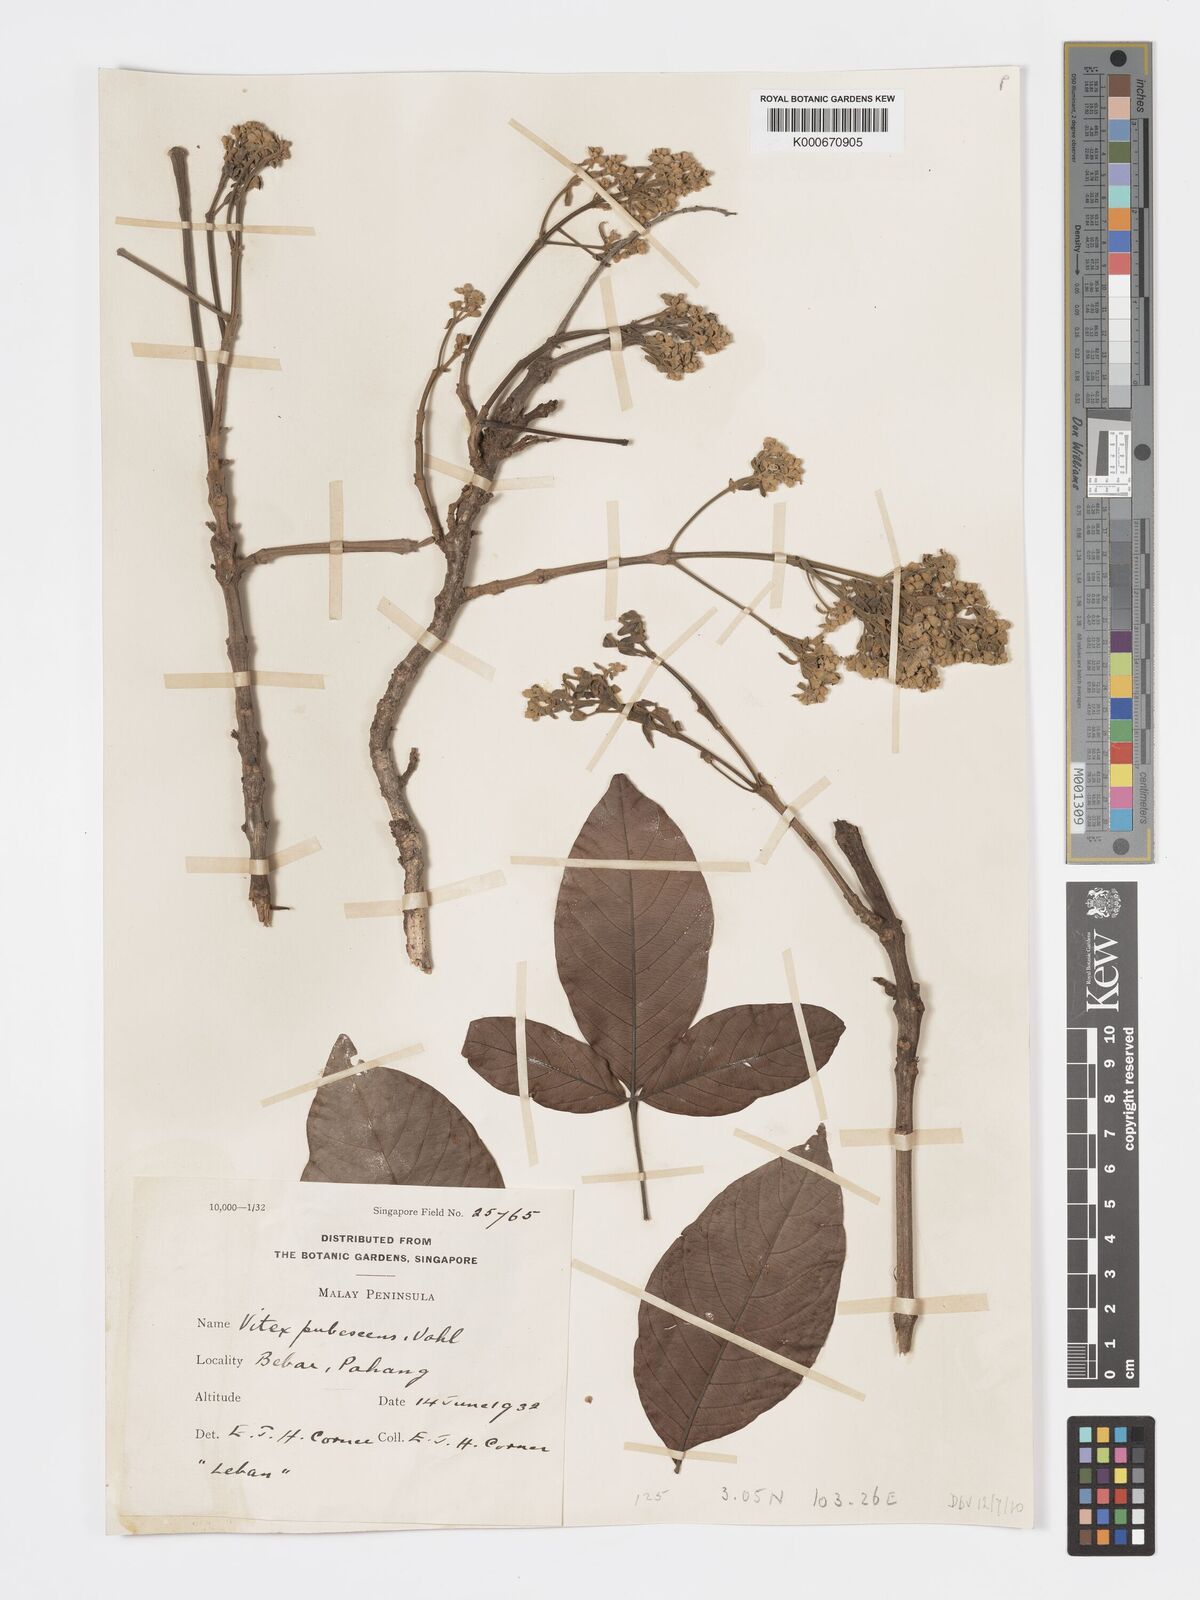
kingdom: Plantae
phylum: Tracheophyta
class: Magnoliopsida
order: Lamiales
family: Lamiaceae
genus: Vitex
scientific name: Vitex pinnata
